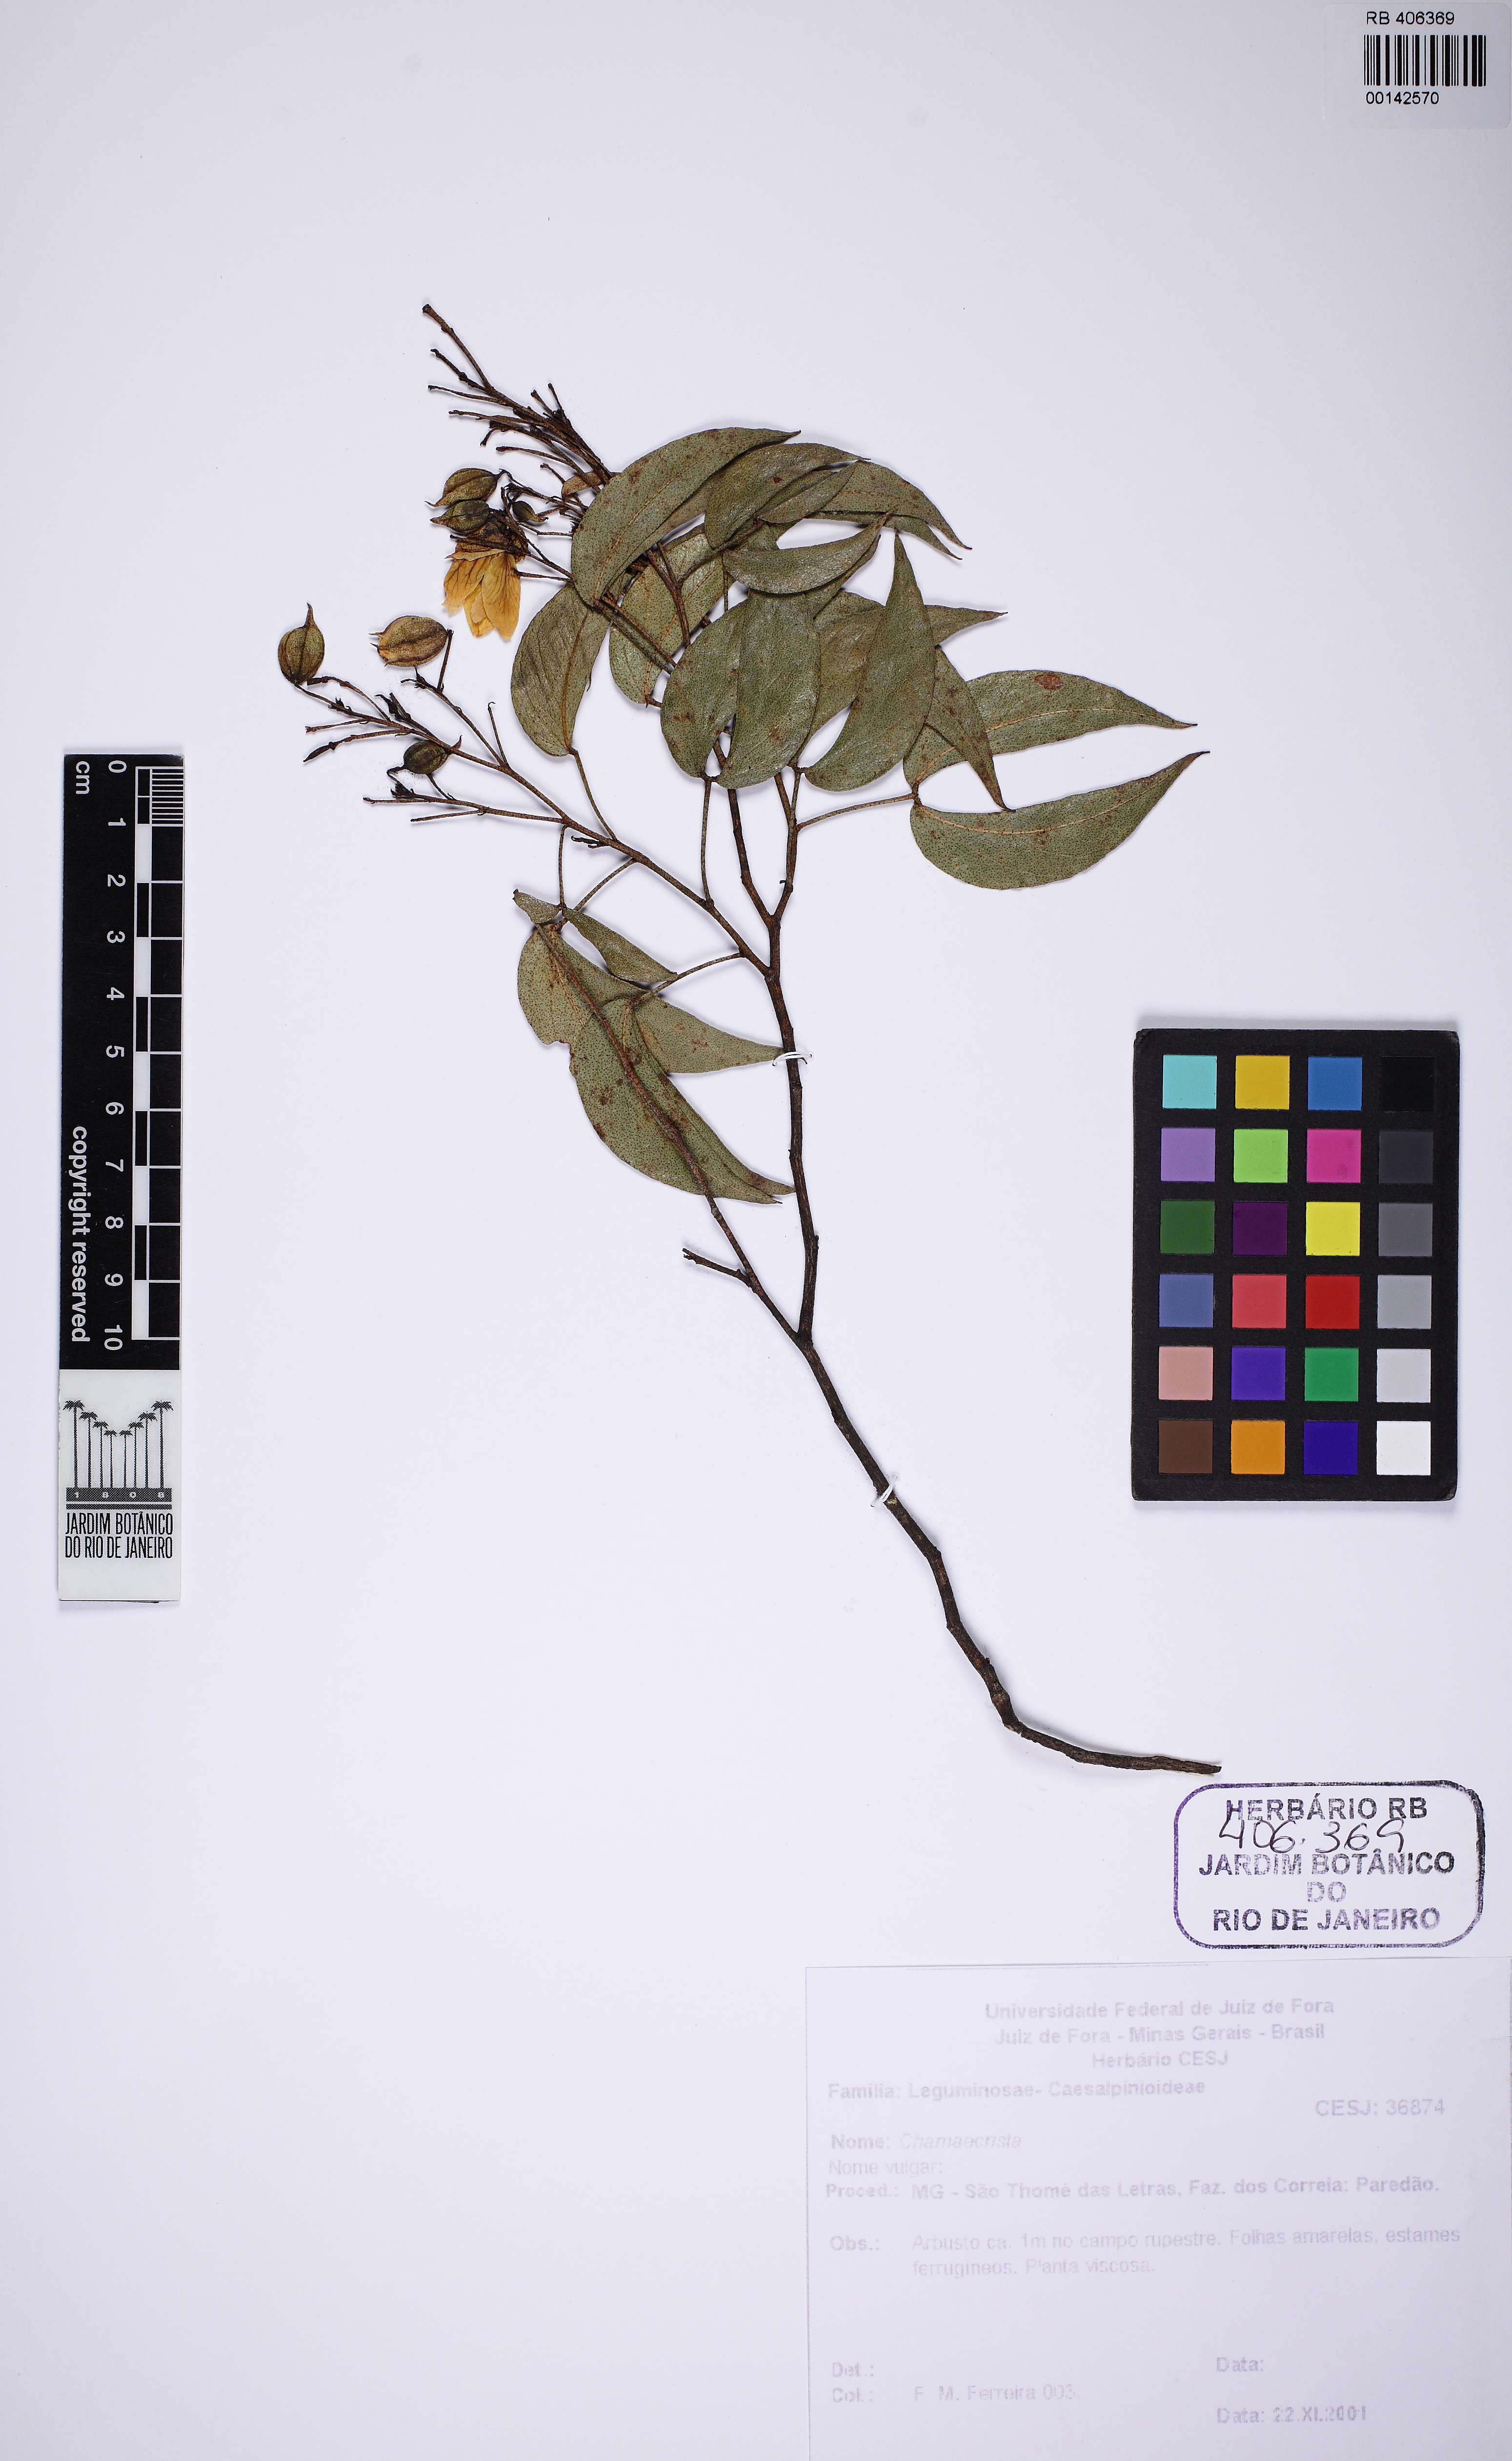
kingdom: Plantae
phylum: Tracheophyta
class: Magnoliopsida
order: Fabales
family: Fabaceae
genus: Chamaecrista
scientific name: Chamaecrista
